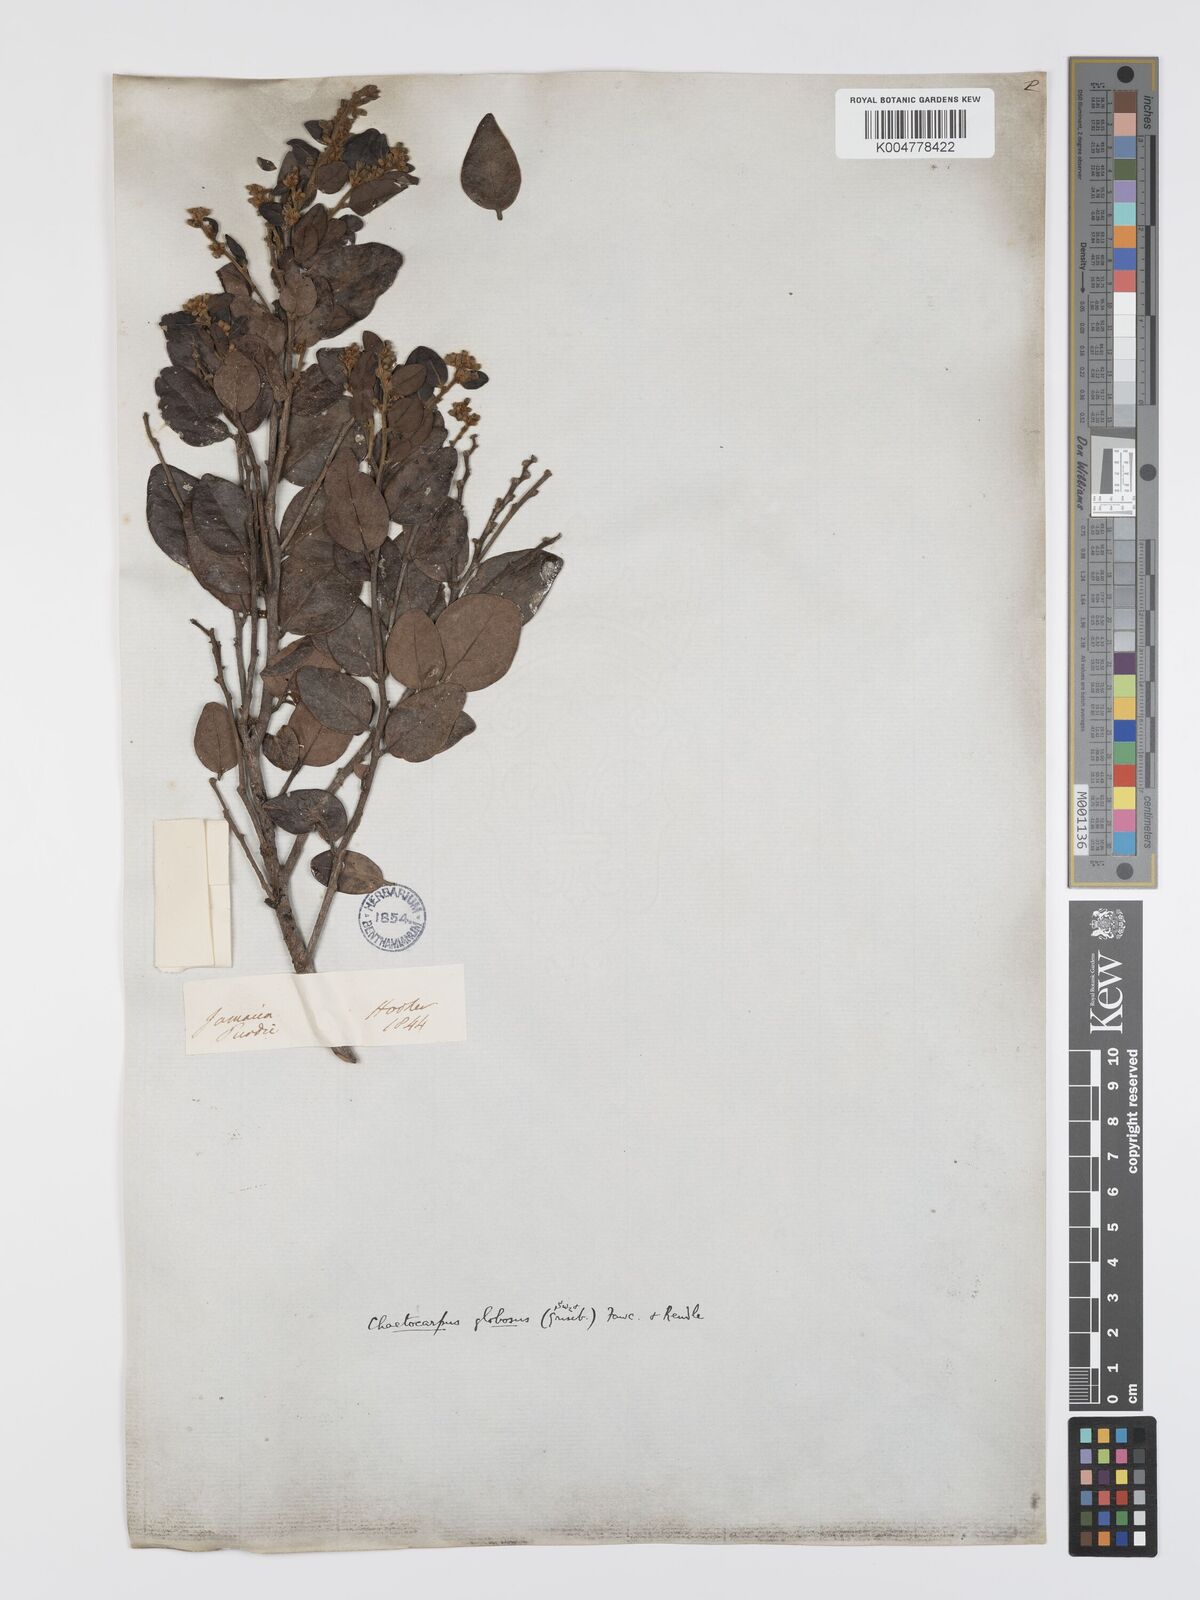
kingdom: Plantae
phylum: Tracheophyta
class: Magnoliopsida
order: Malpighiales
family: Peraceae
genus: Chaetocarpus
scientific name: Chaetocarpus globosus
